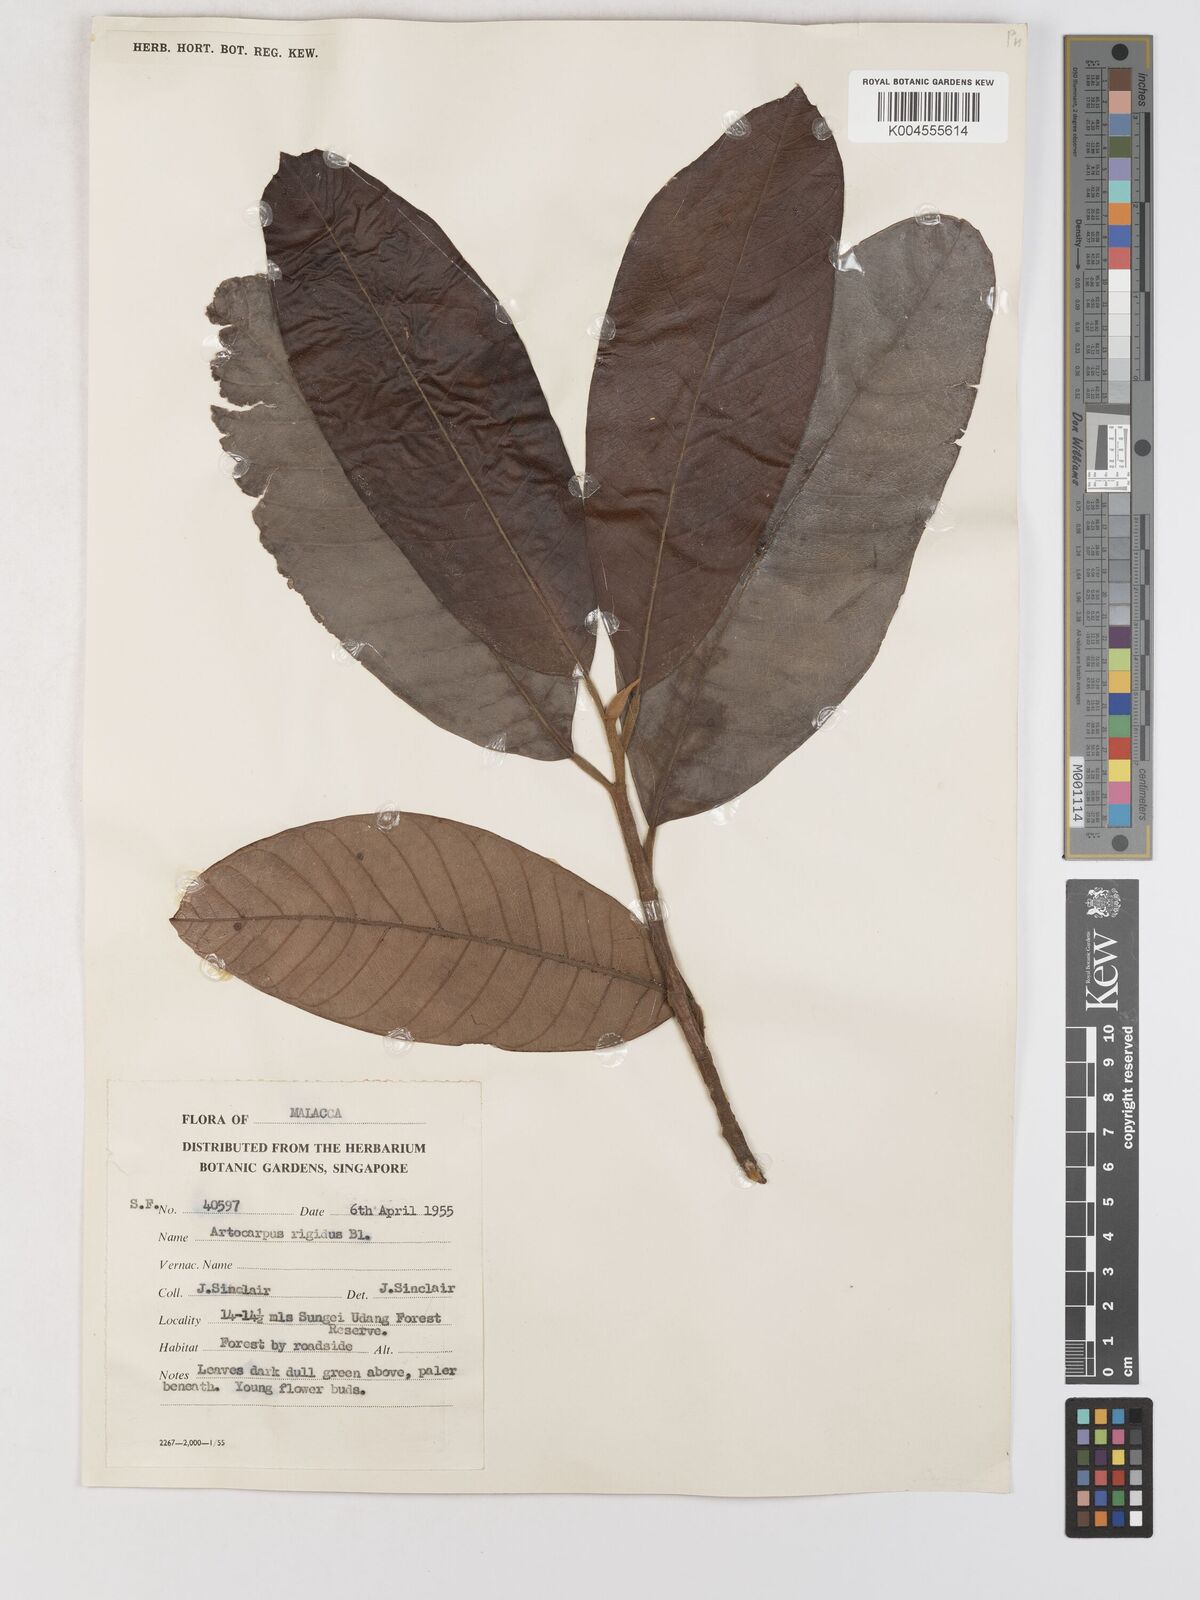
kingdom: Plantae
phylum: Tracheophyta
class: Magnoliopsida
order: Rosales
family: Moraceae
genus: Artocarpus
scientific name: Artocarpus
